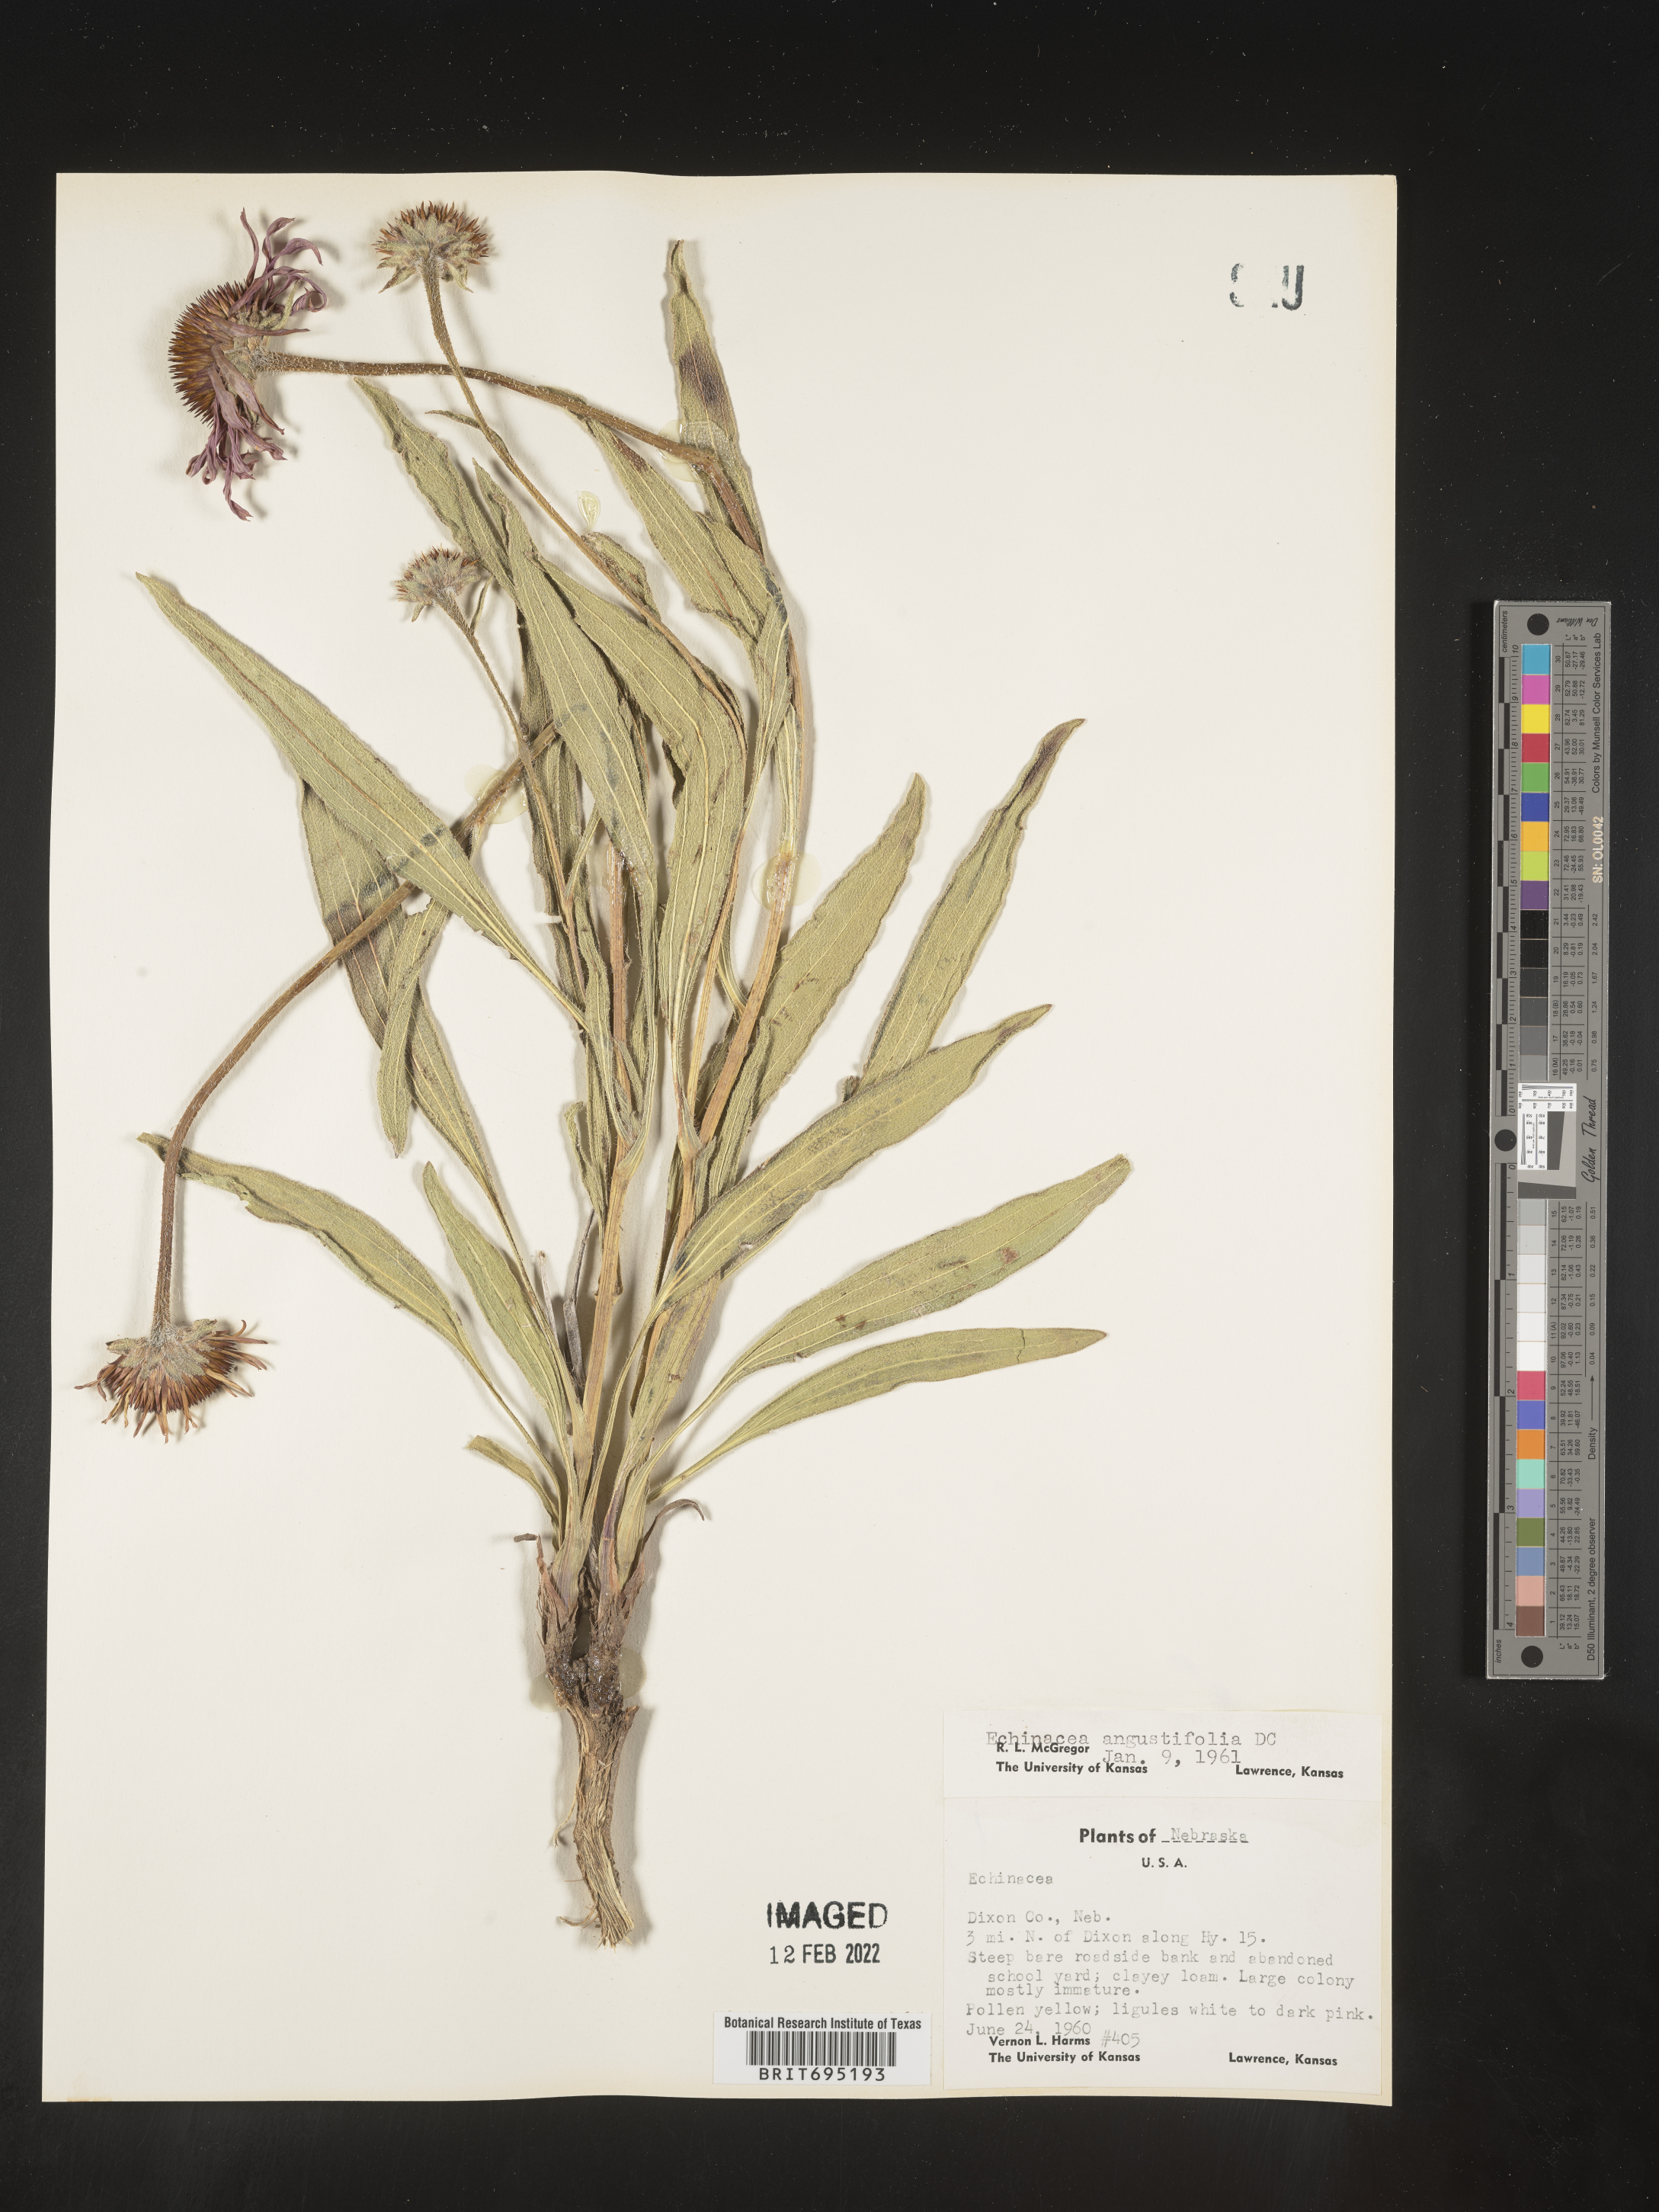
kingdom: Plantae
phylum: Tracheophyta
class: Magnoliopsida
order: Asterales
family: Asteraceae
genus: Echinacea
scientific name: Echinacea angustifolia
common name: Black-sampson echinacea
